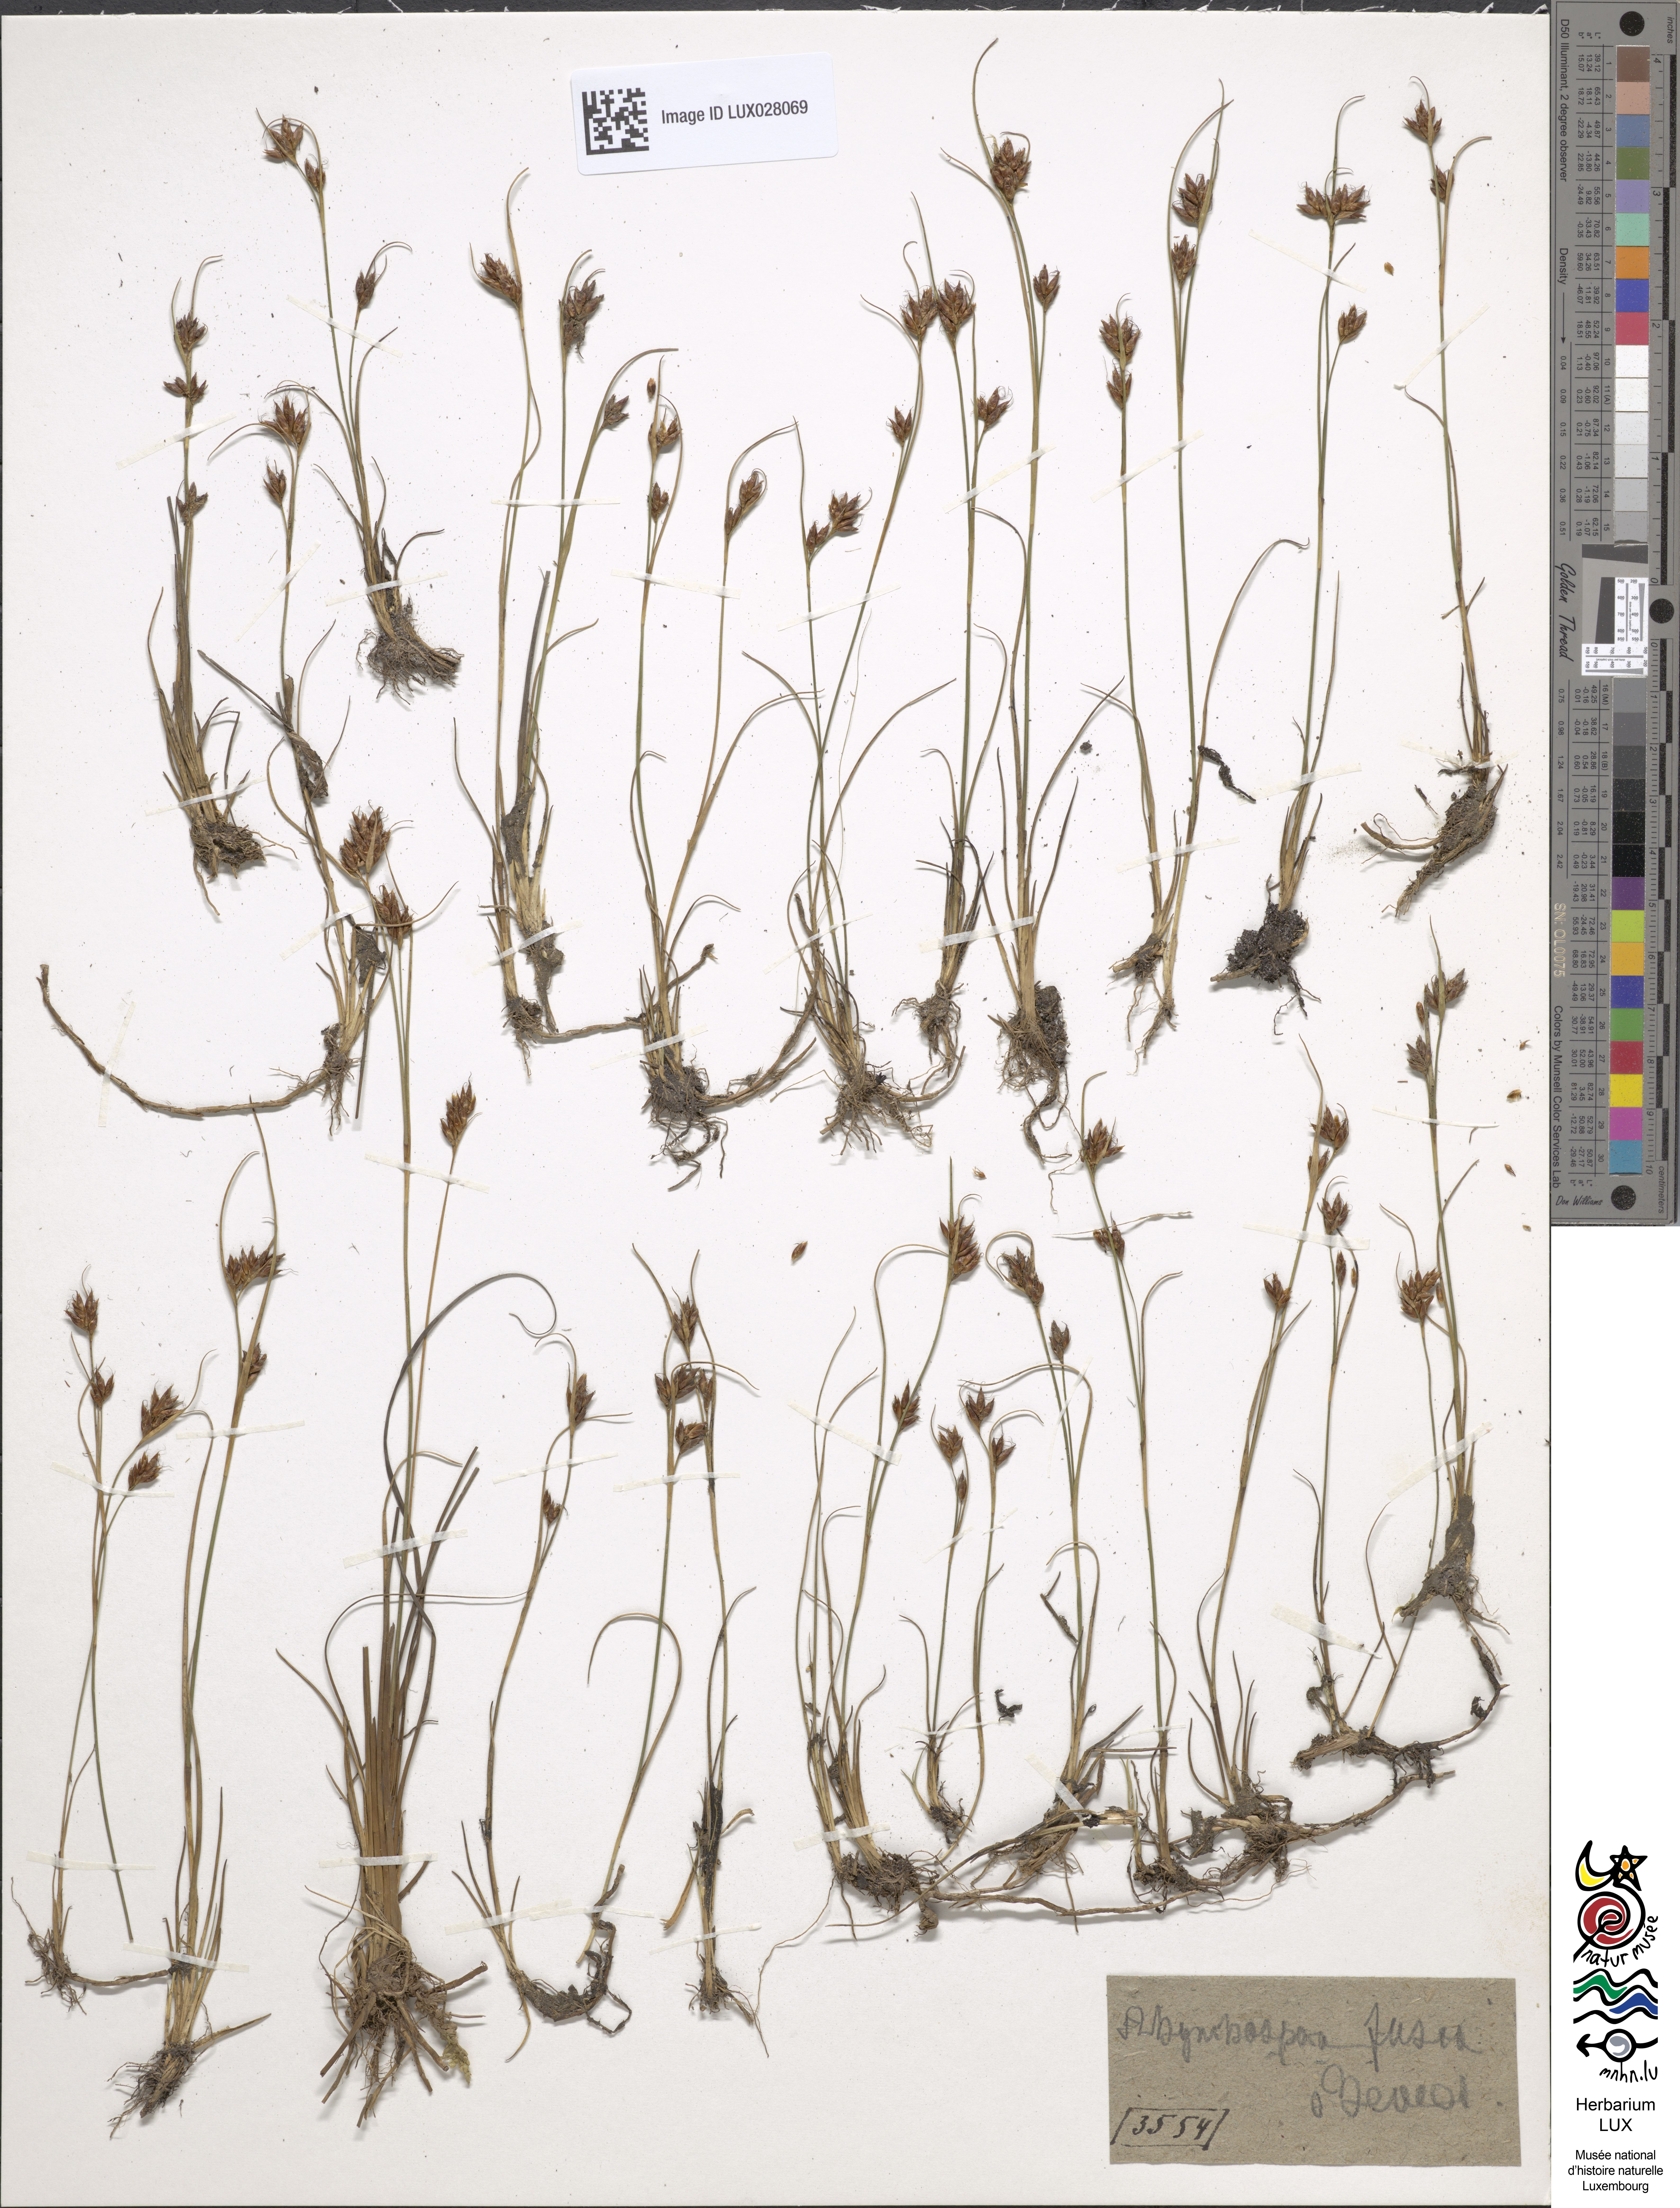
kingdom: Plantae
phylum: Tracheophyta
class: Liliopsida
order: Poales
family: Cyperaceae
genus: Rhynchospora
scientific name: Rhynchospora fusca
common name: Brown beak-sedge
